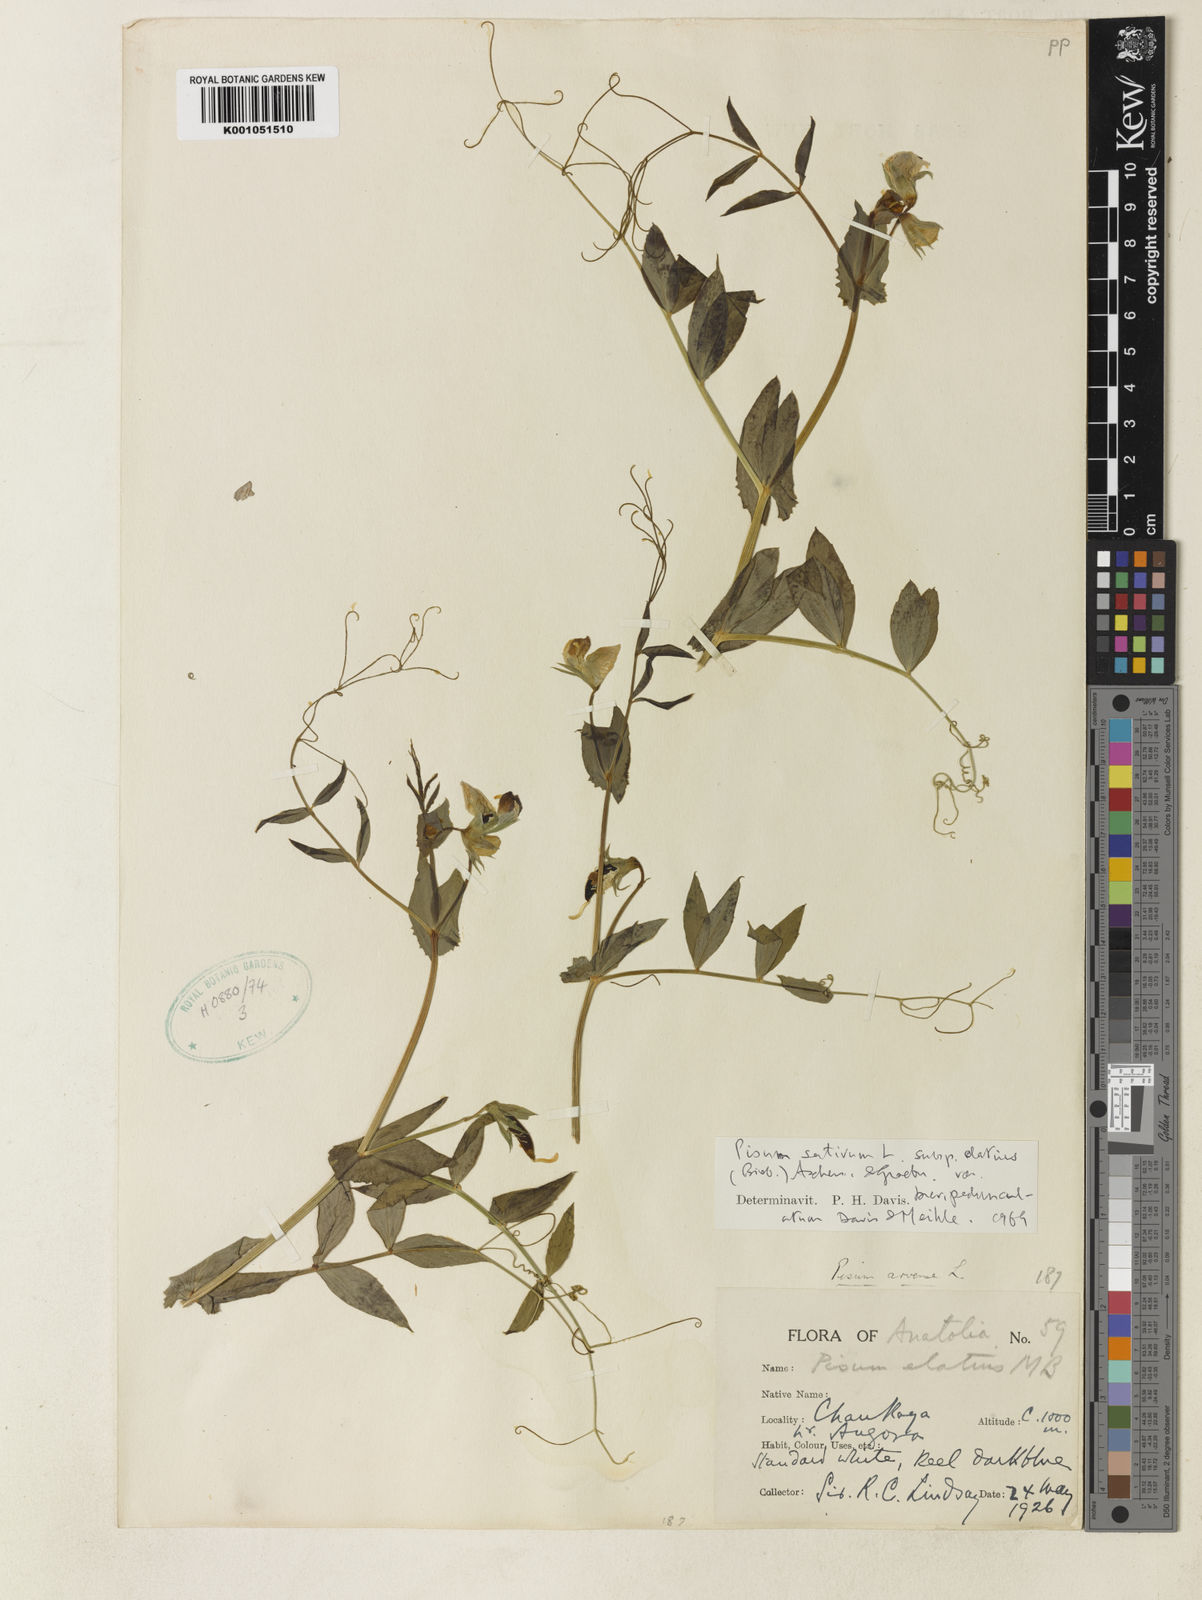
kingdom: Plantae
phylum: Tracheophyta
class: Magnoliopsida
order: Fabales
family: Fabaceae
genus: Lathyrus
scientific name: Lathyrus oleraceus
